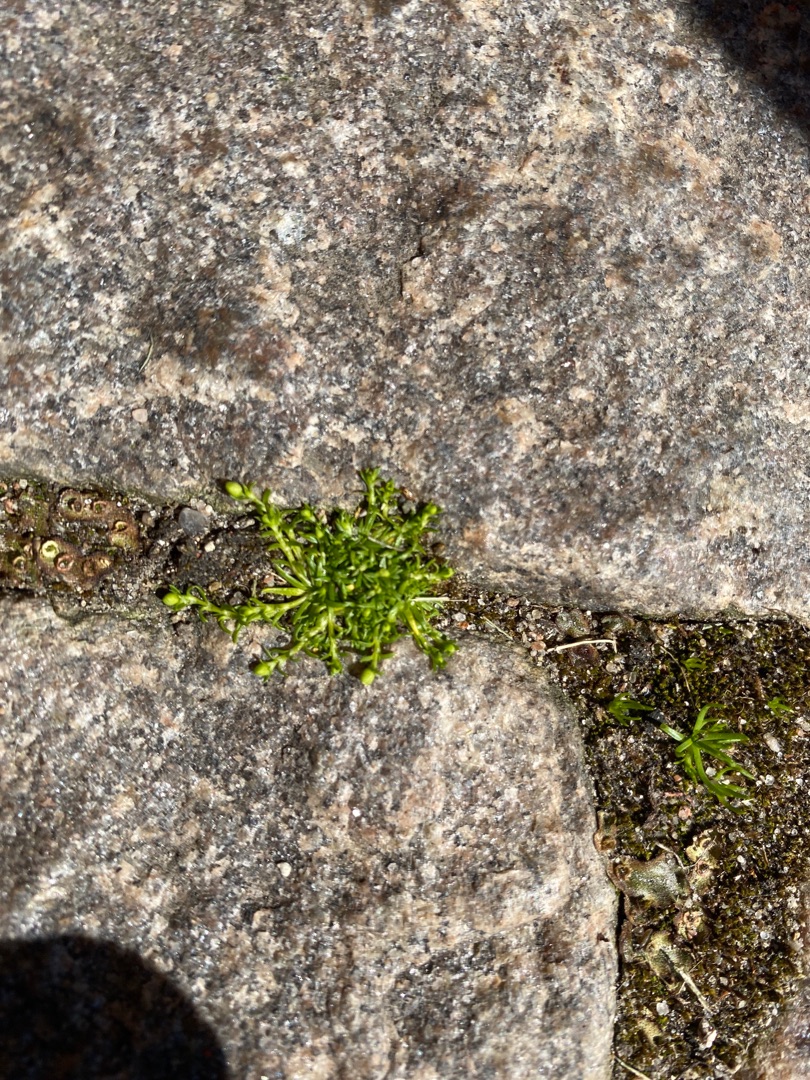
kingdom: Plantae
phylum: Tracheophyta
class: Magnoliopsida
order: Caryophyllales
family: Caryophyllaceae
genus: Sagina
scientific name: Sagina procumbens
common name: Almindelig firling
